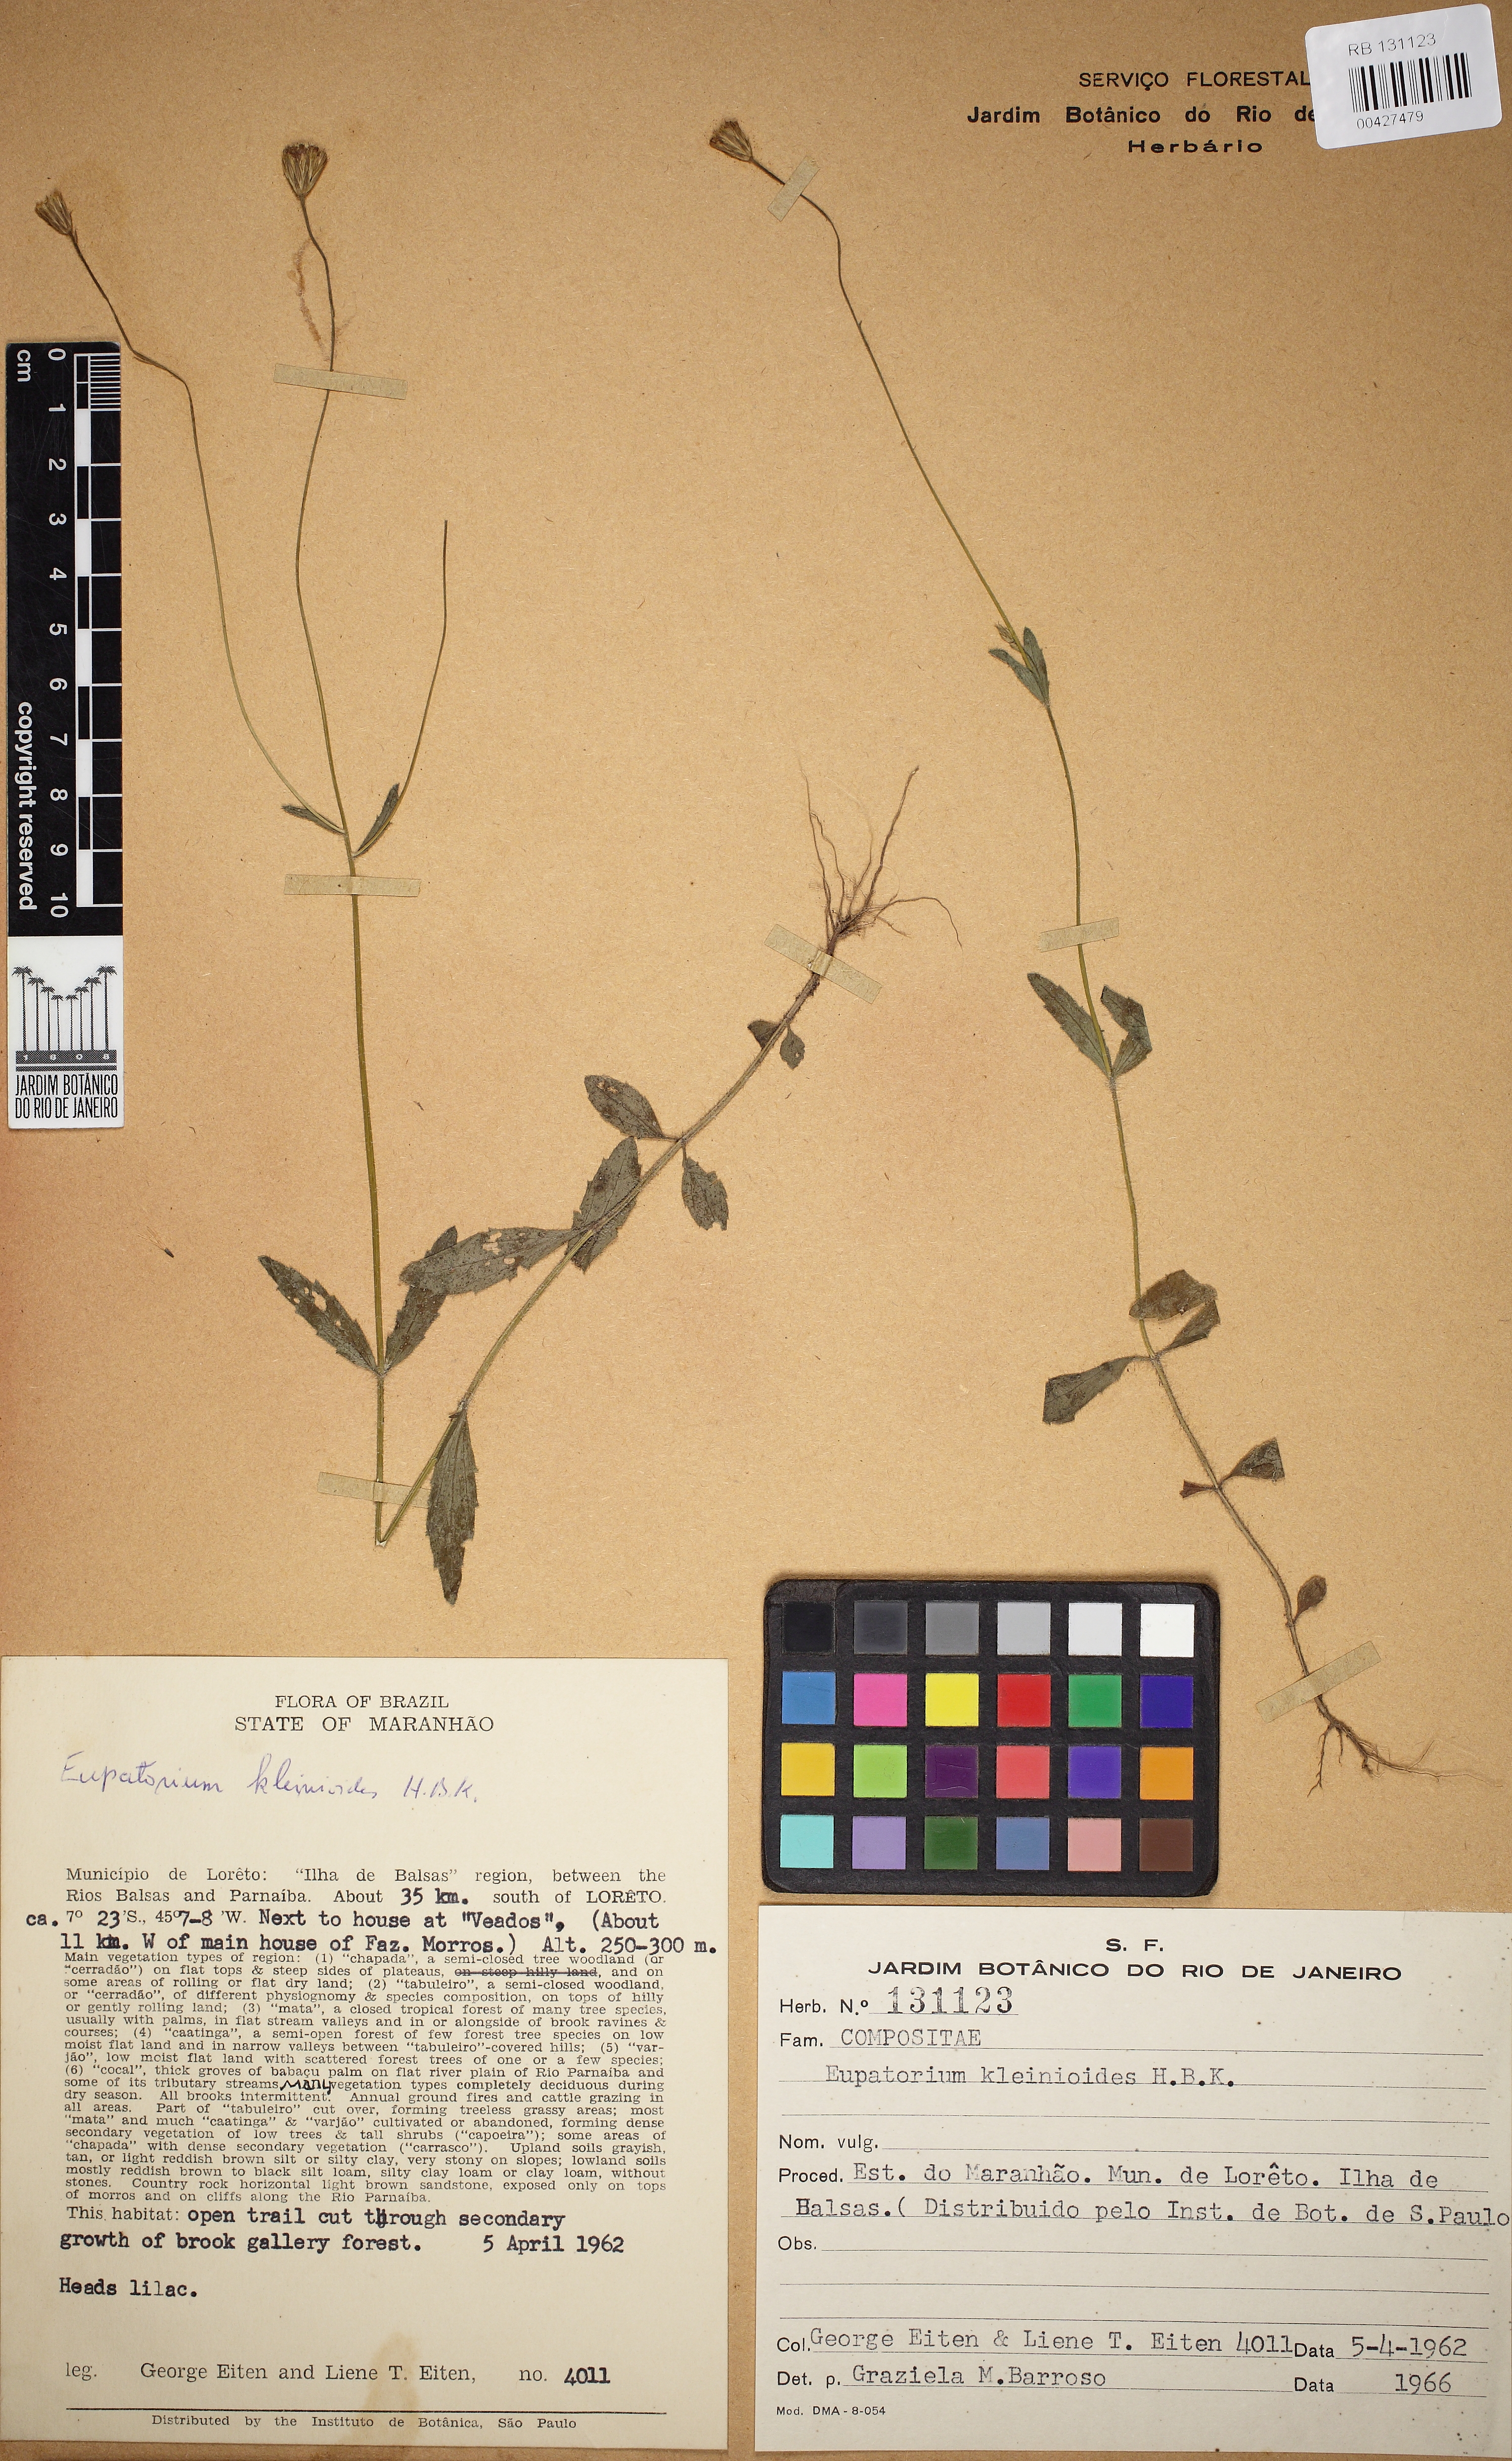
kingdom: Plantae
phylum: Tracheophyta
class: Magnoliopsida
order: Asterales
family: Asteraceae
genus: Praxelis
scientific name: Praxelis kleinioides
